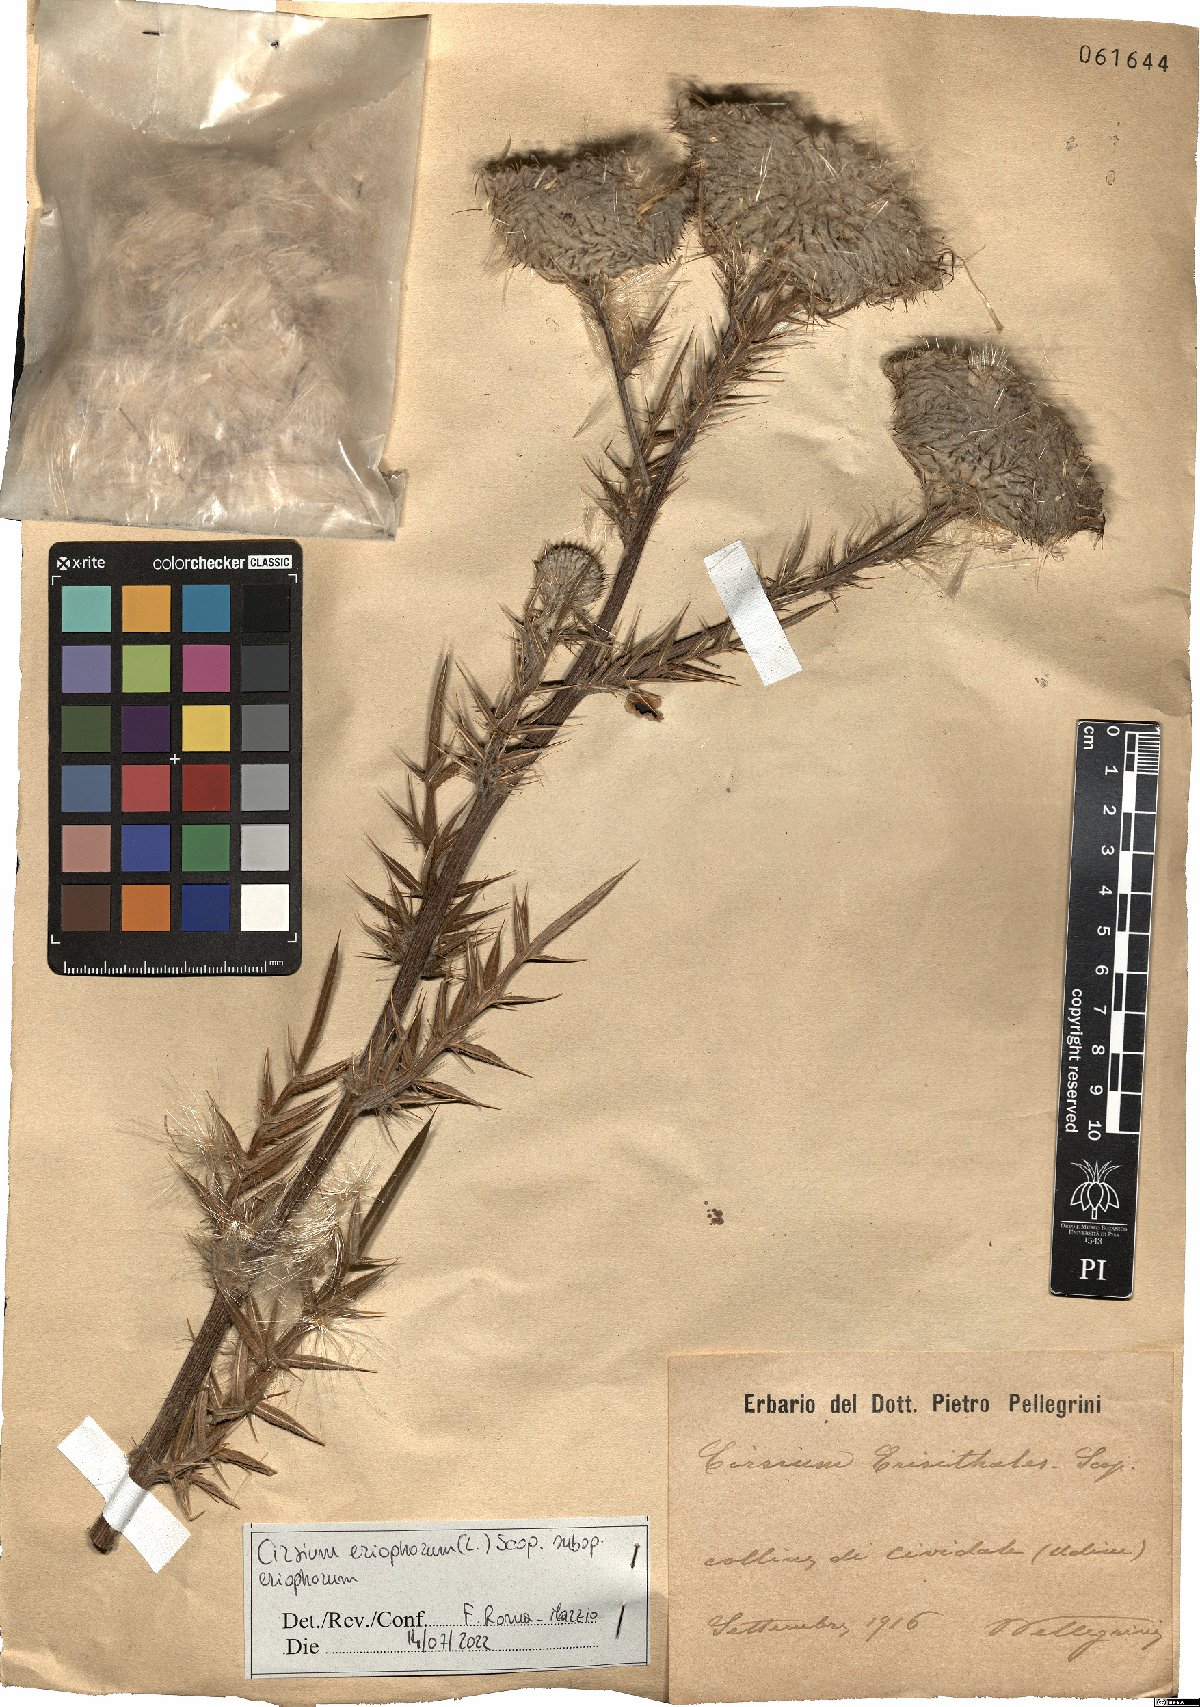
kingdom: Plantae
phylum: Tracheophyta
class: Magnoliopsida
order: Asterales
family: Asteraceae
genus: Lophiolepis
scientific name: Lophiolepis eriophora
